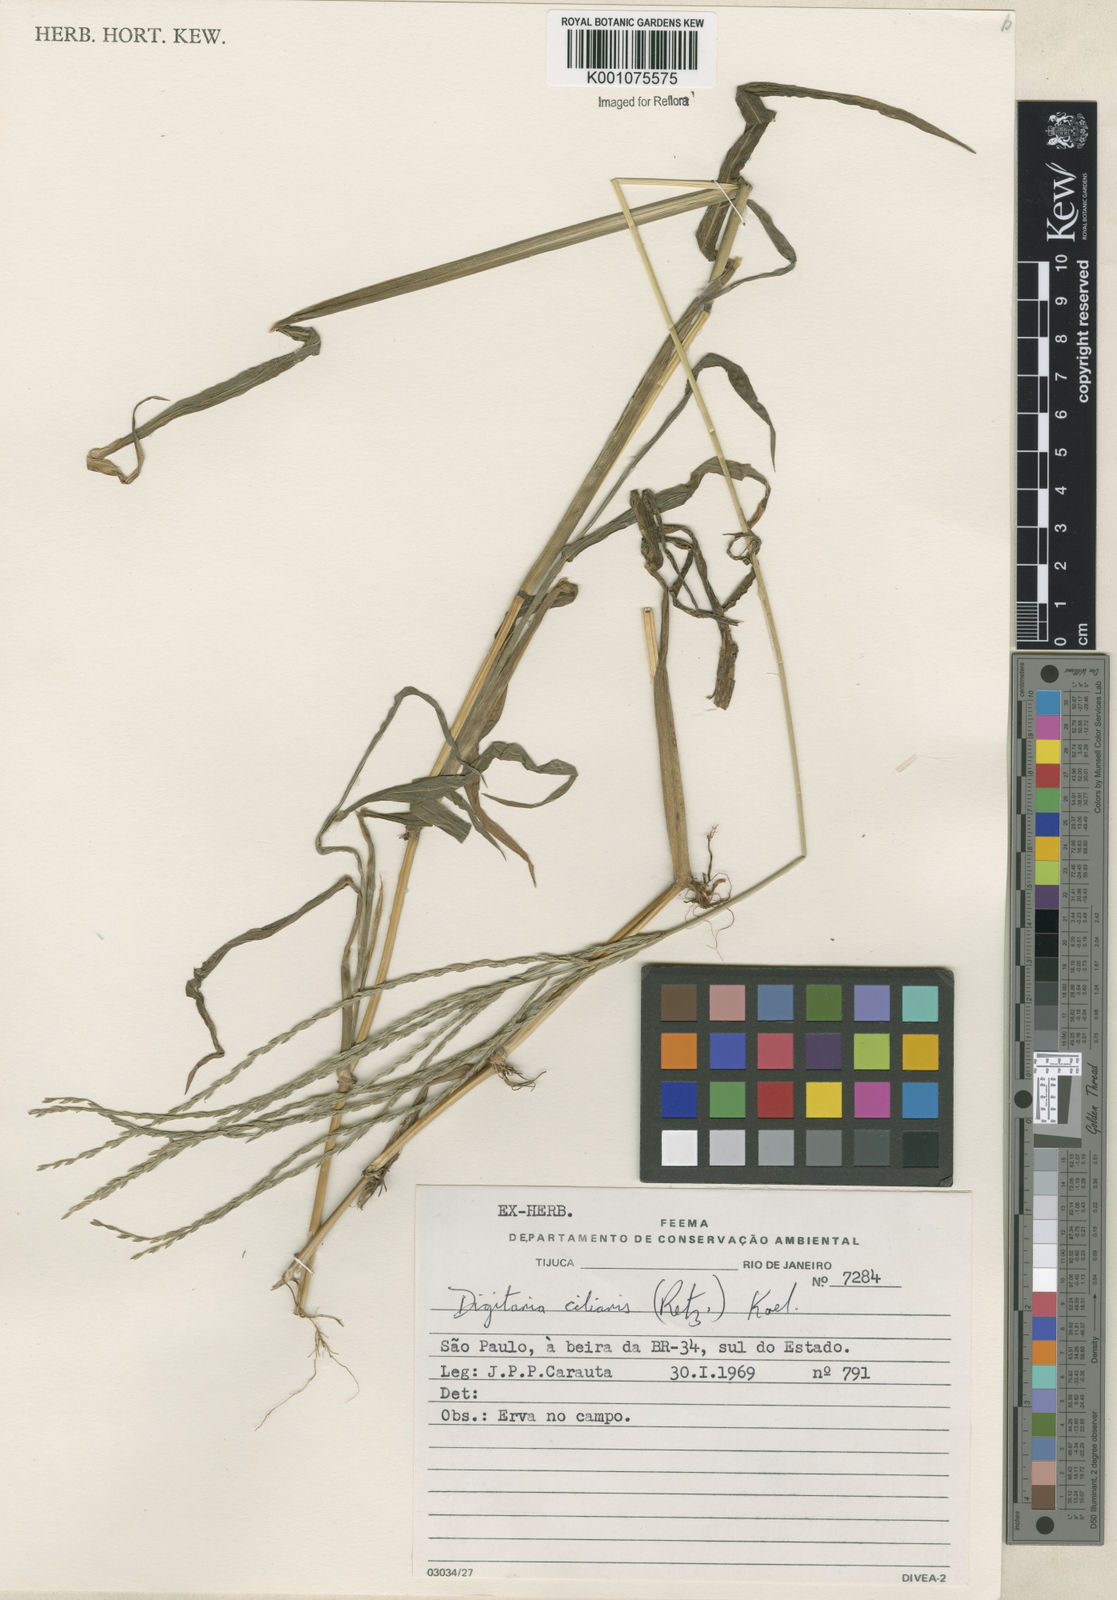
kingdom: Plantae
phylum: Tracheophyta
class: Liliopsida
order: Poales
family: Poaceae
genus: Digitaria
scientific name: Digitaria ciliaris
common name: Tropical finger-grass
